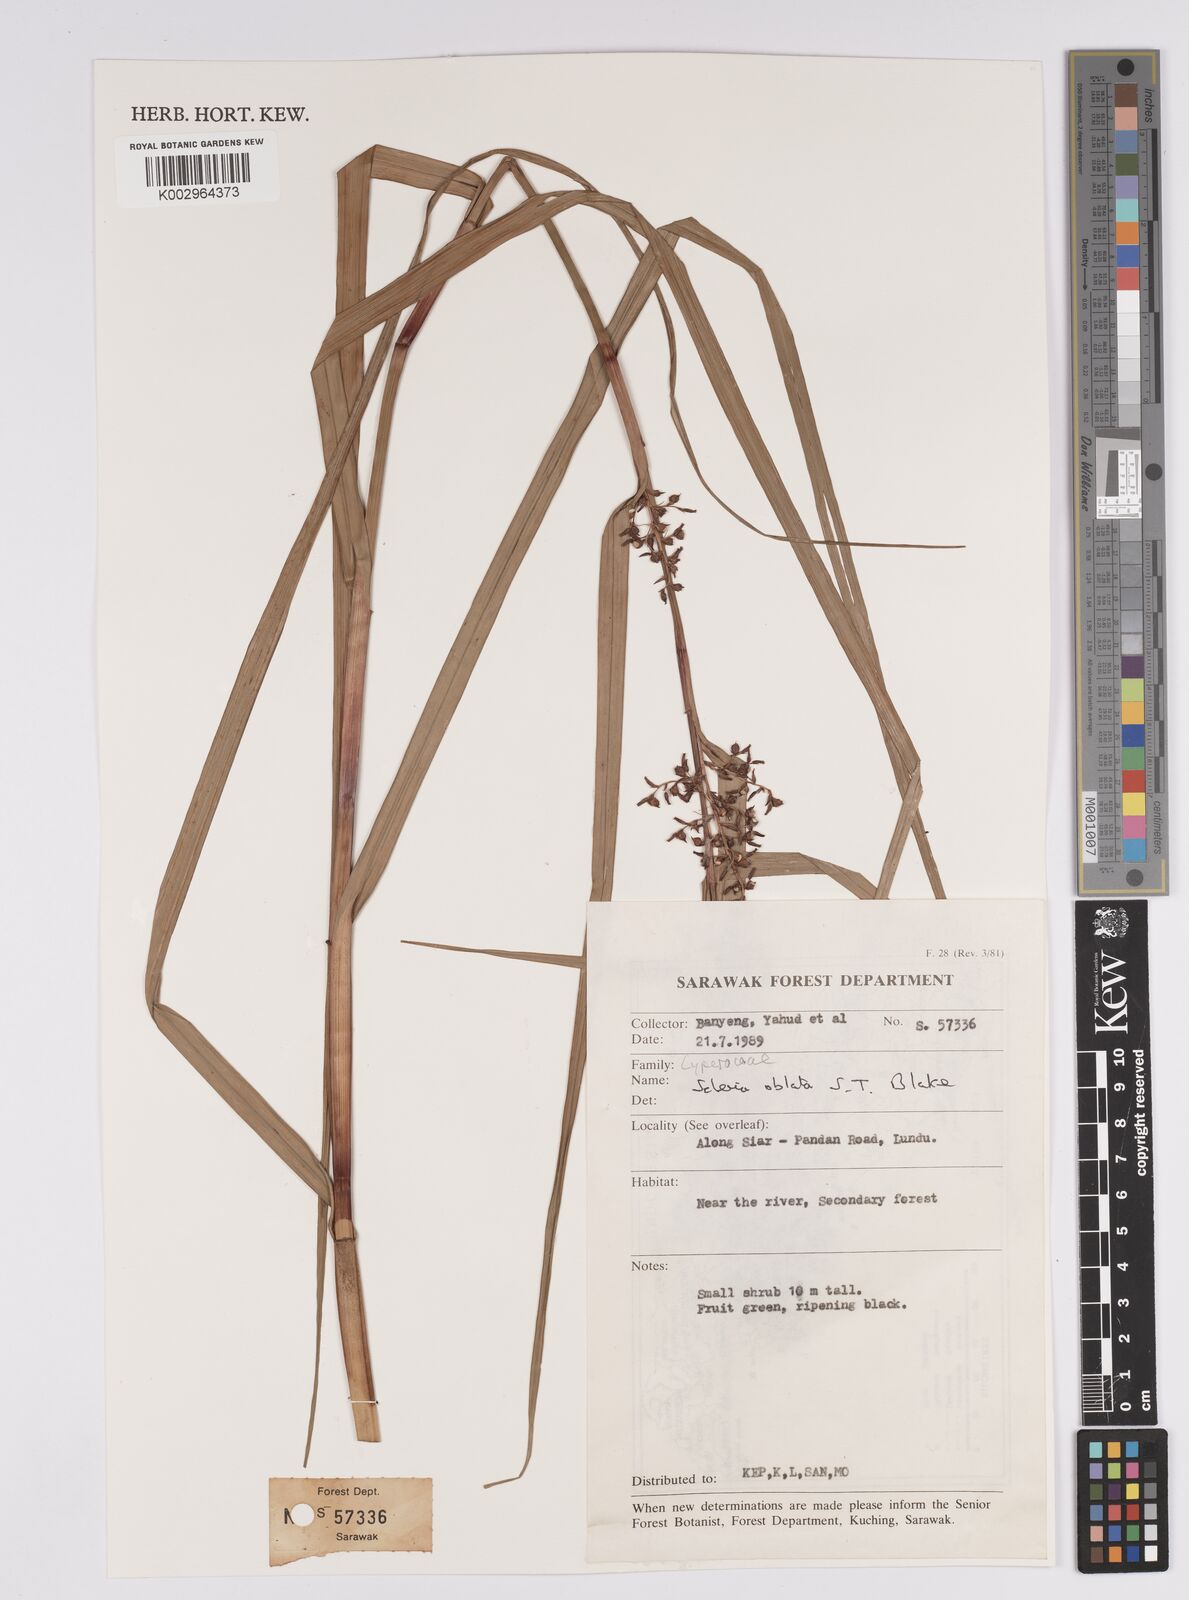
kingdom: Plantae
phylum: Tracheophyta
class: Liliopsida
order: Poales
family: Cyperaceae
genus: Scleria
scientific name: Scleria oblata
